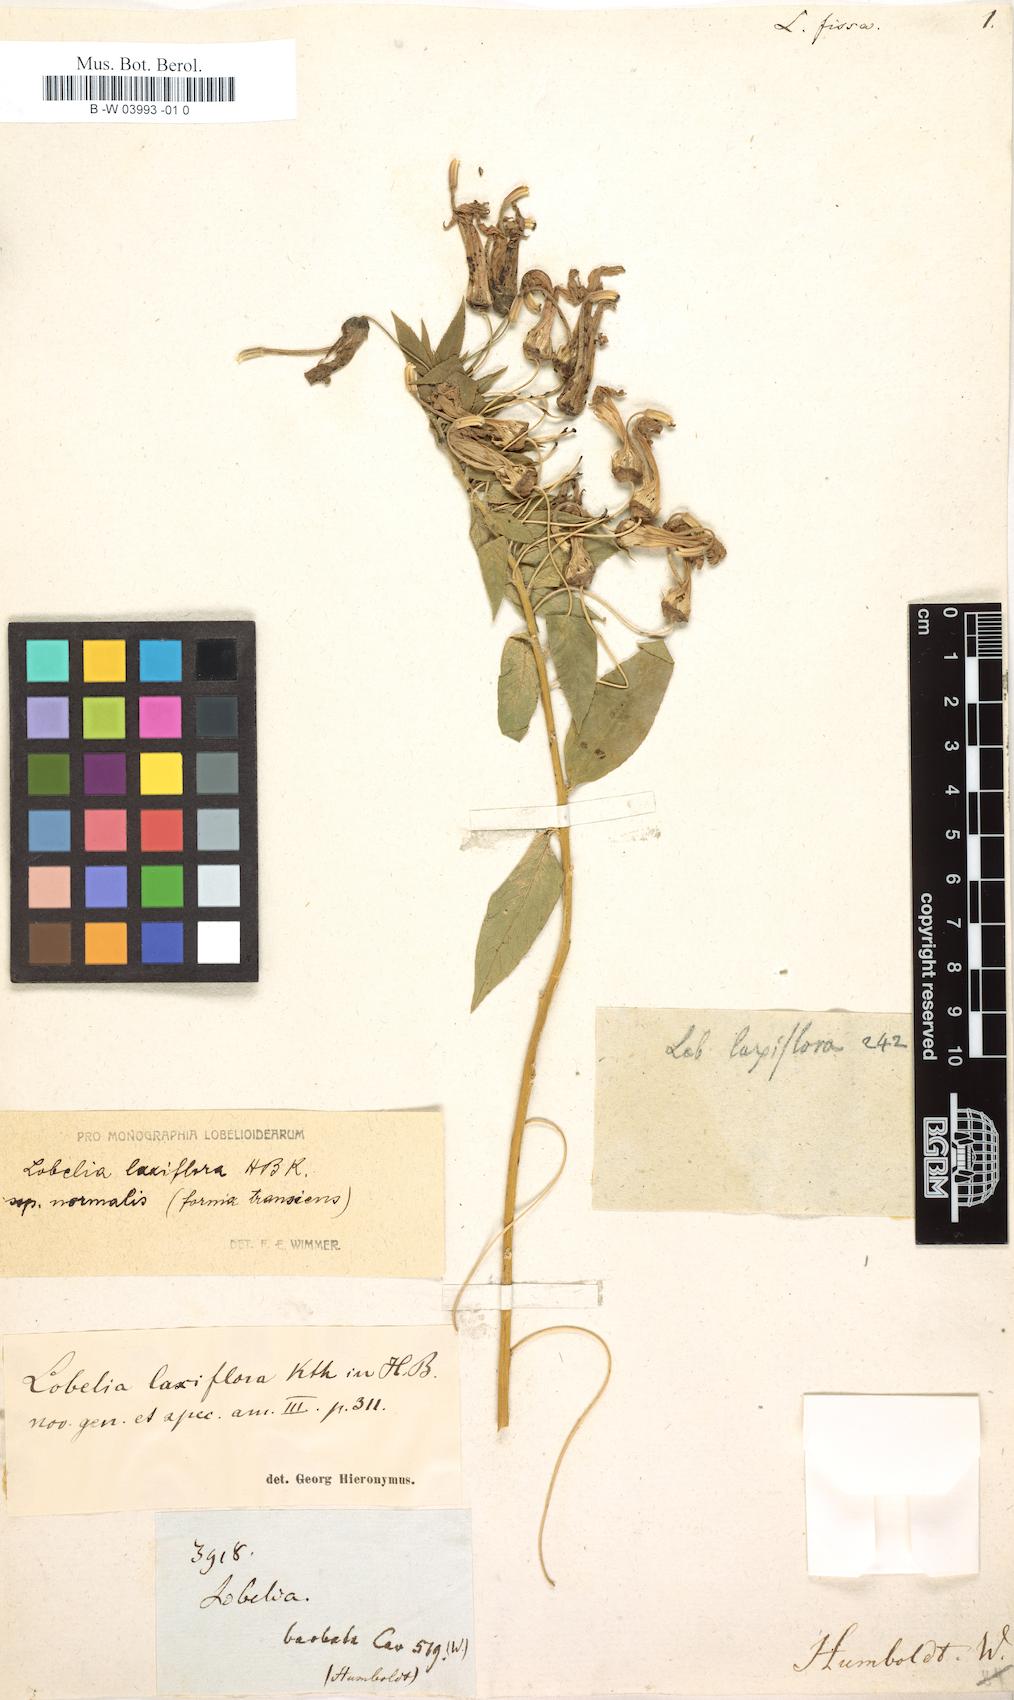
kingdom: Plantae
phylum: Tracheophyta
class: Magnoliopsida
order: Asterales
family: Campanulaceae
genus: Lobelia
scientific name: Lobelia laxiflora
